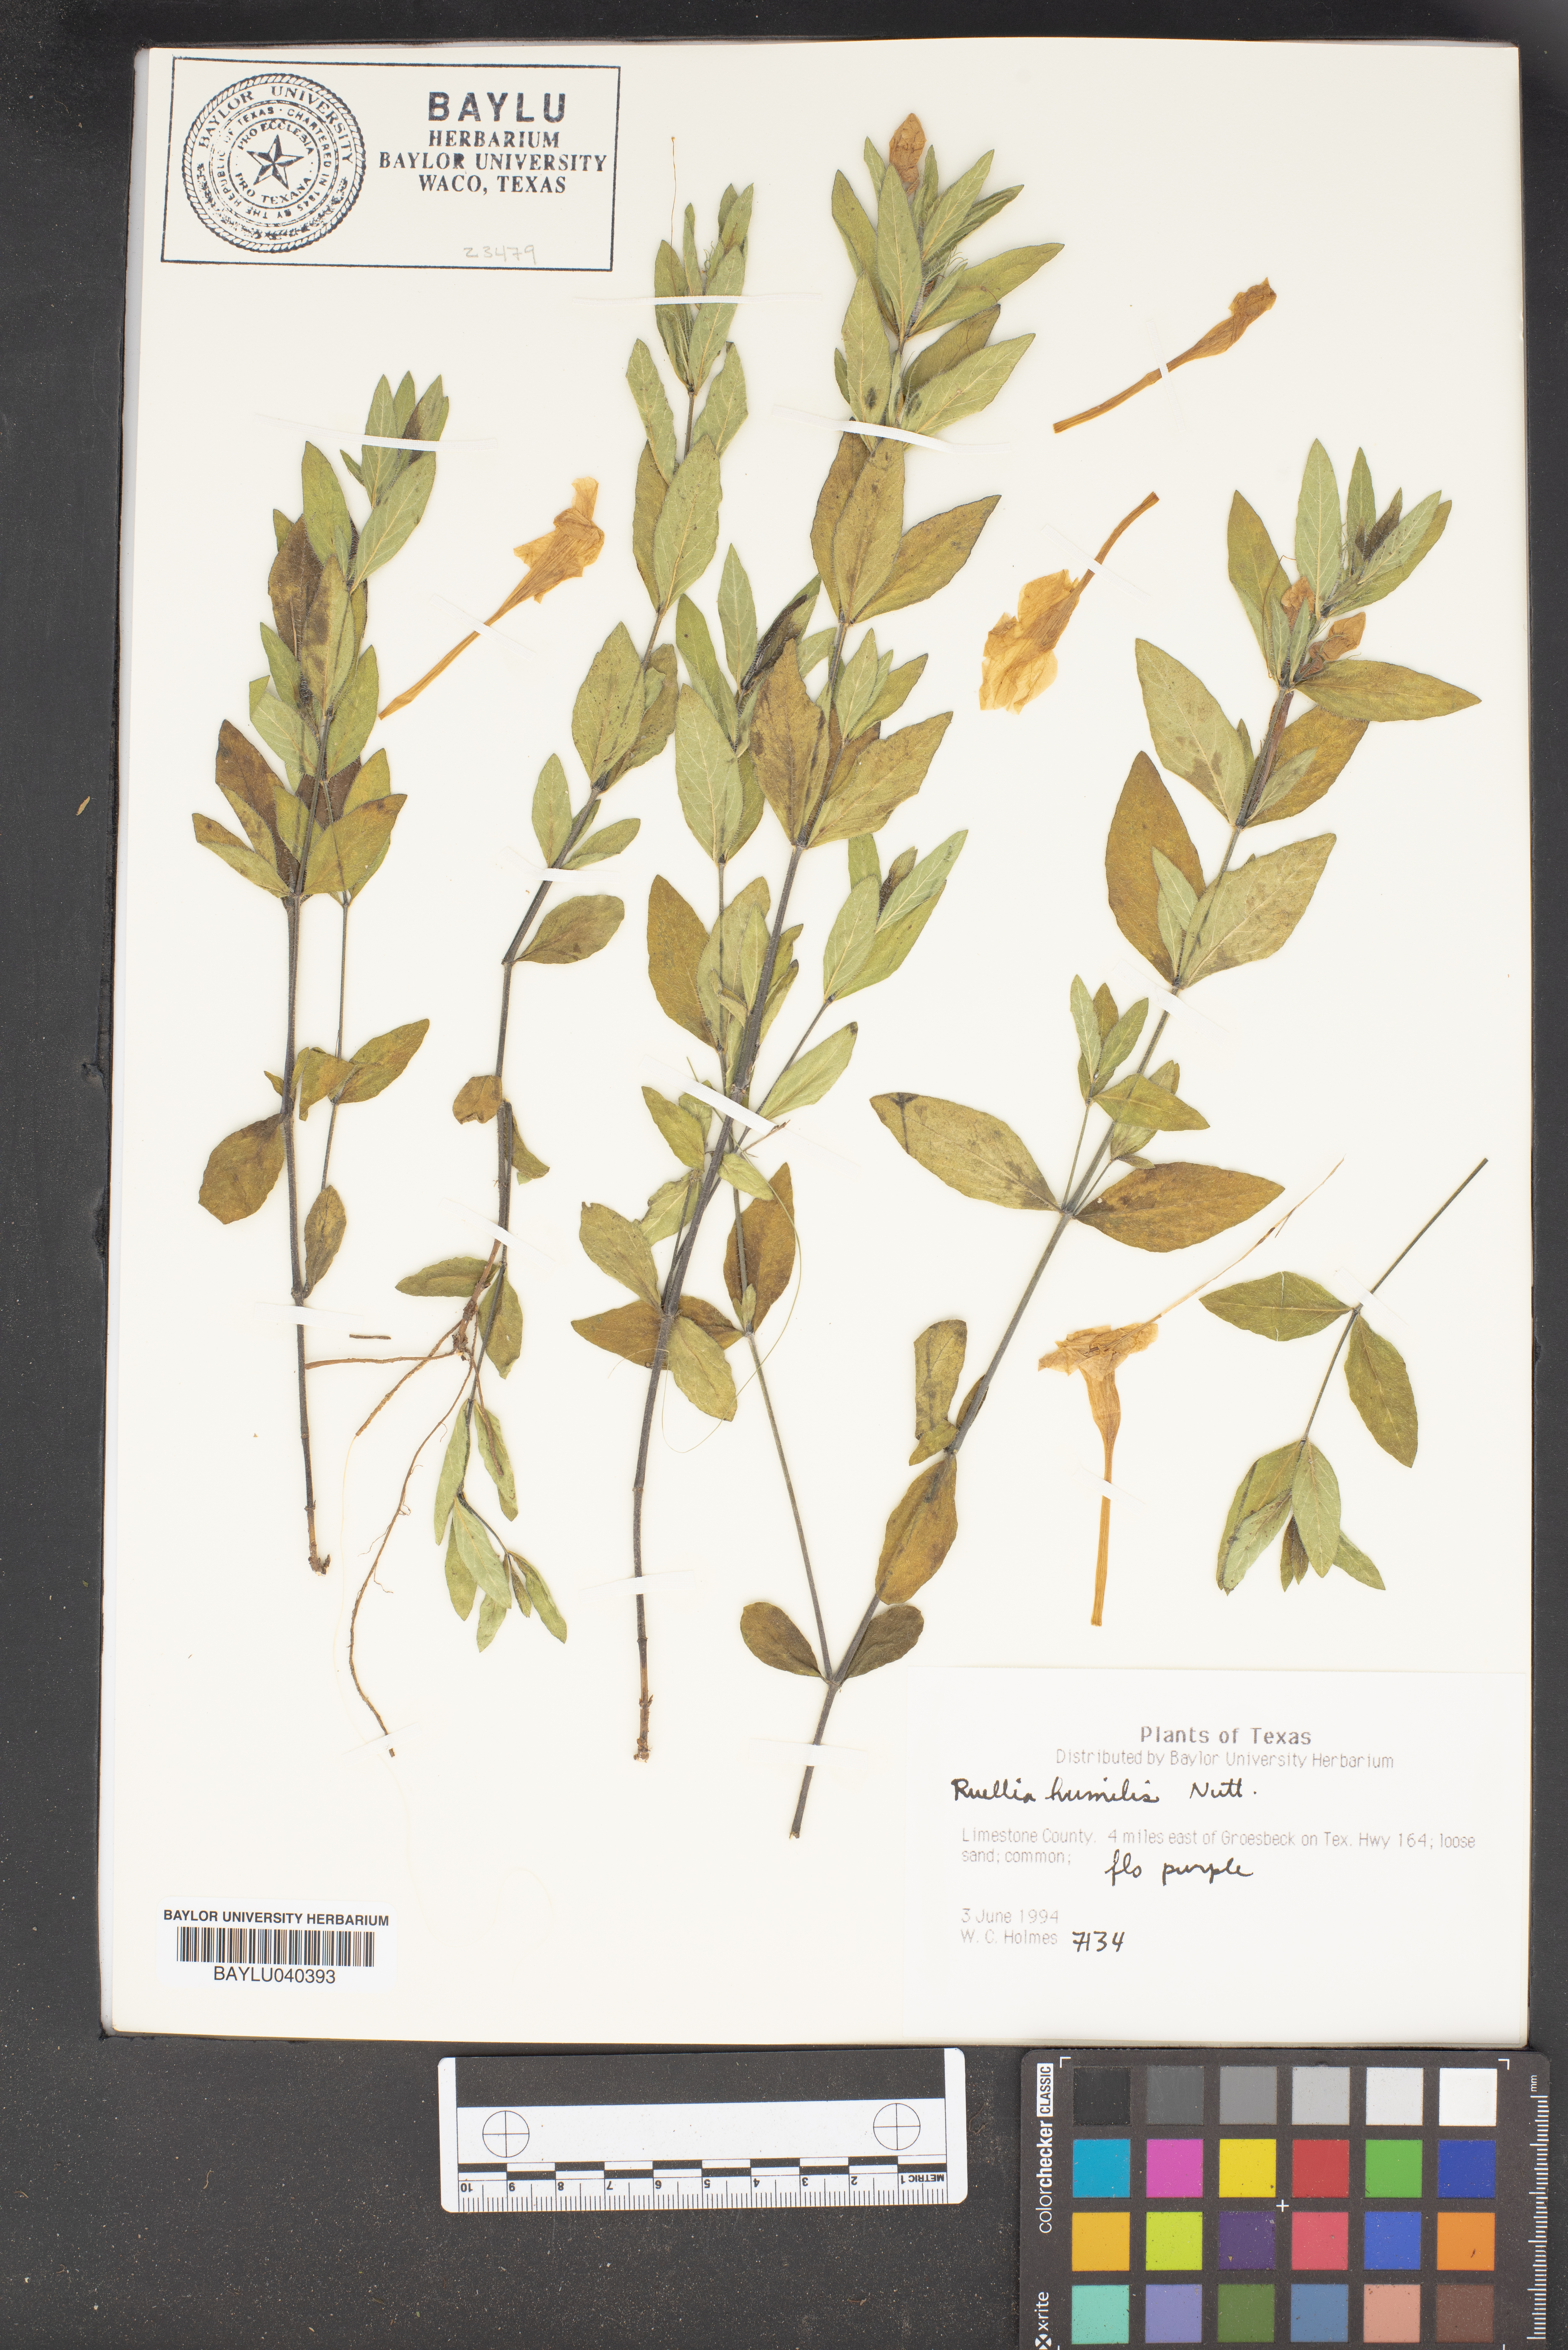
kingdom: Plantae
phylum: Tracheophyta
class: Magnoliopsida
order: Lamiales
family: Acanthaceae
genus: Ruellia
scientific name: Ruellia humilis
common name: Fringe-leaf ruellia
